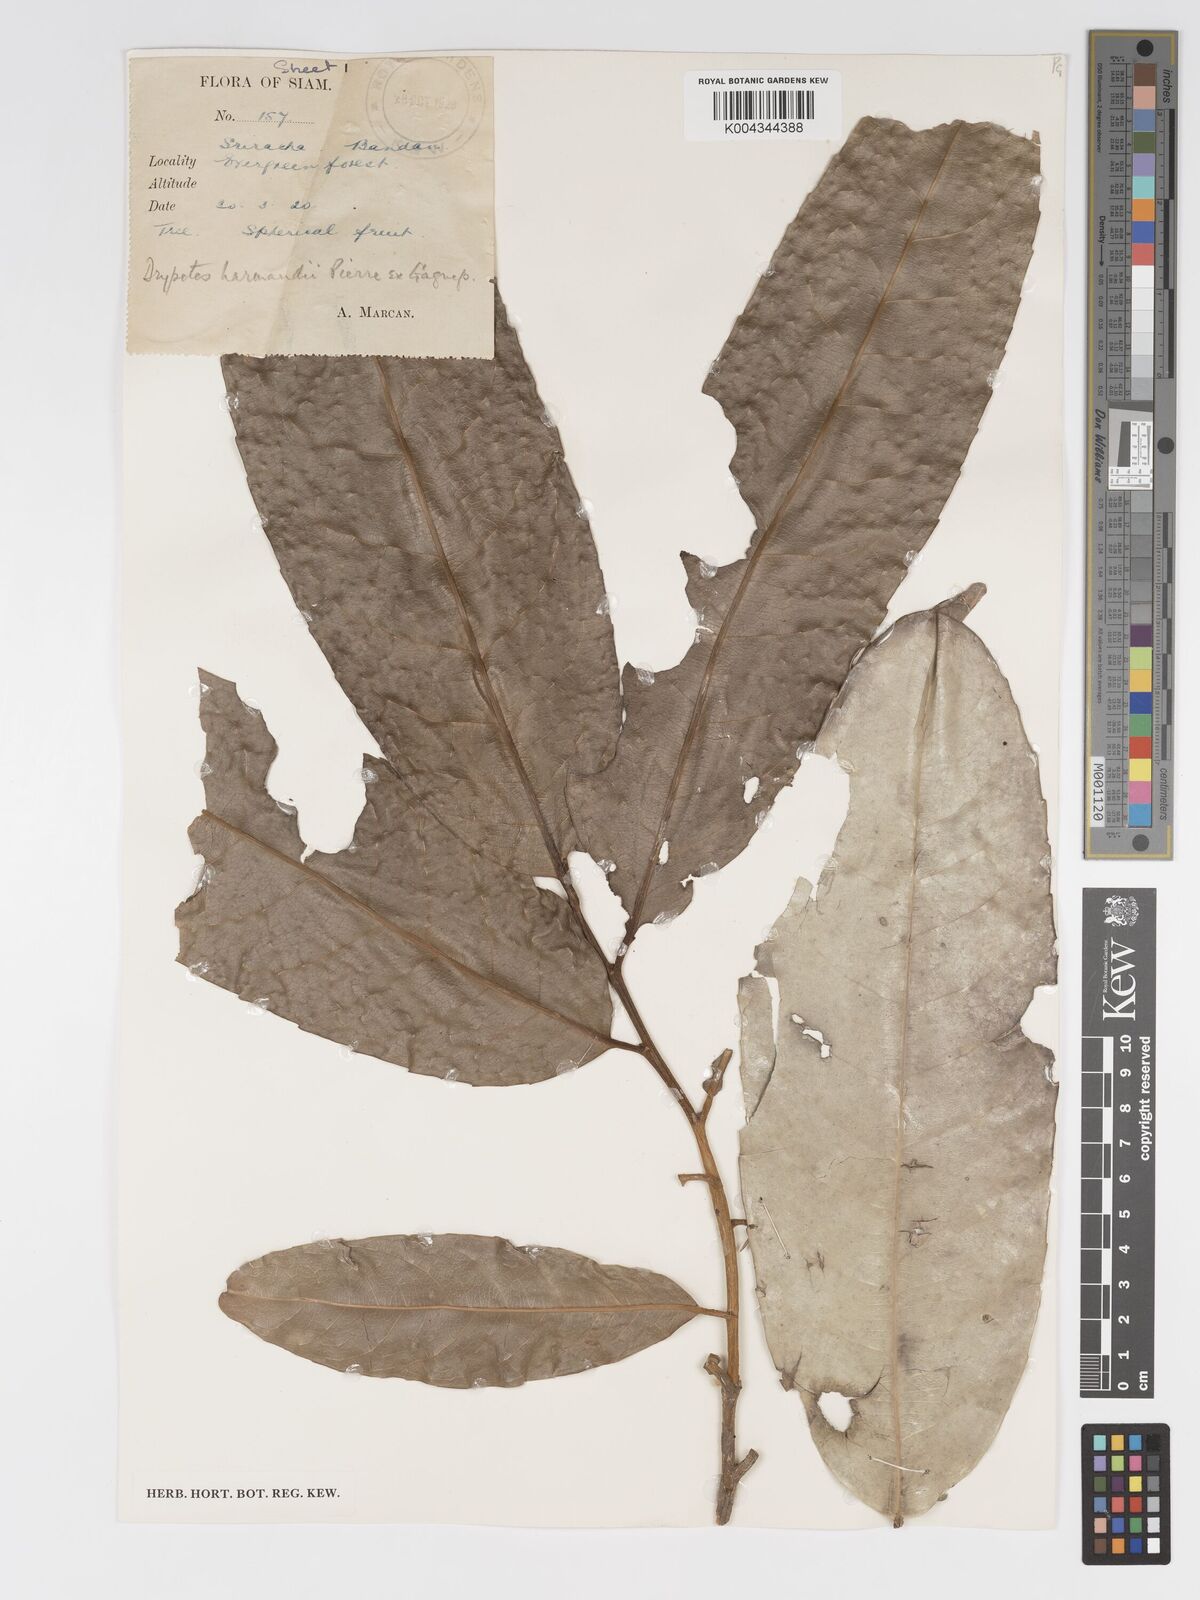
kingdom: Plantae
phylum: Tracheophyta
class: Magnoliopsida
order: Malpighiales
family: Putranjivaceae
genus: Drypetes
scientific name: Drypetes harmandii
